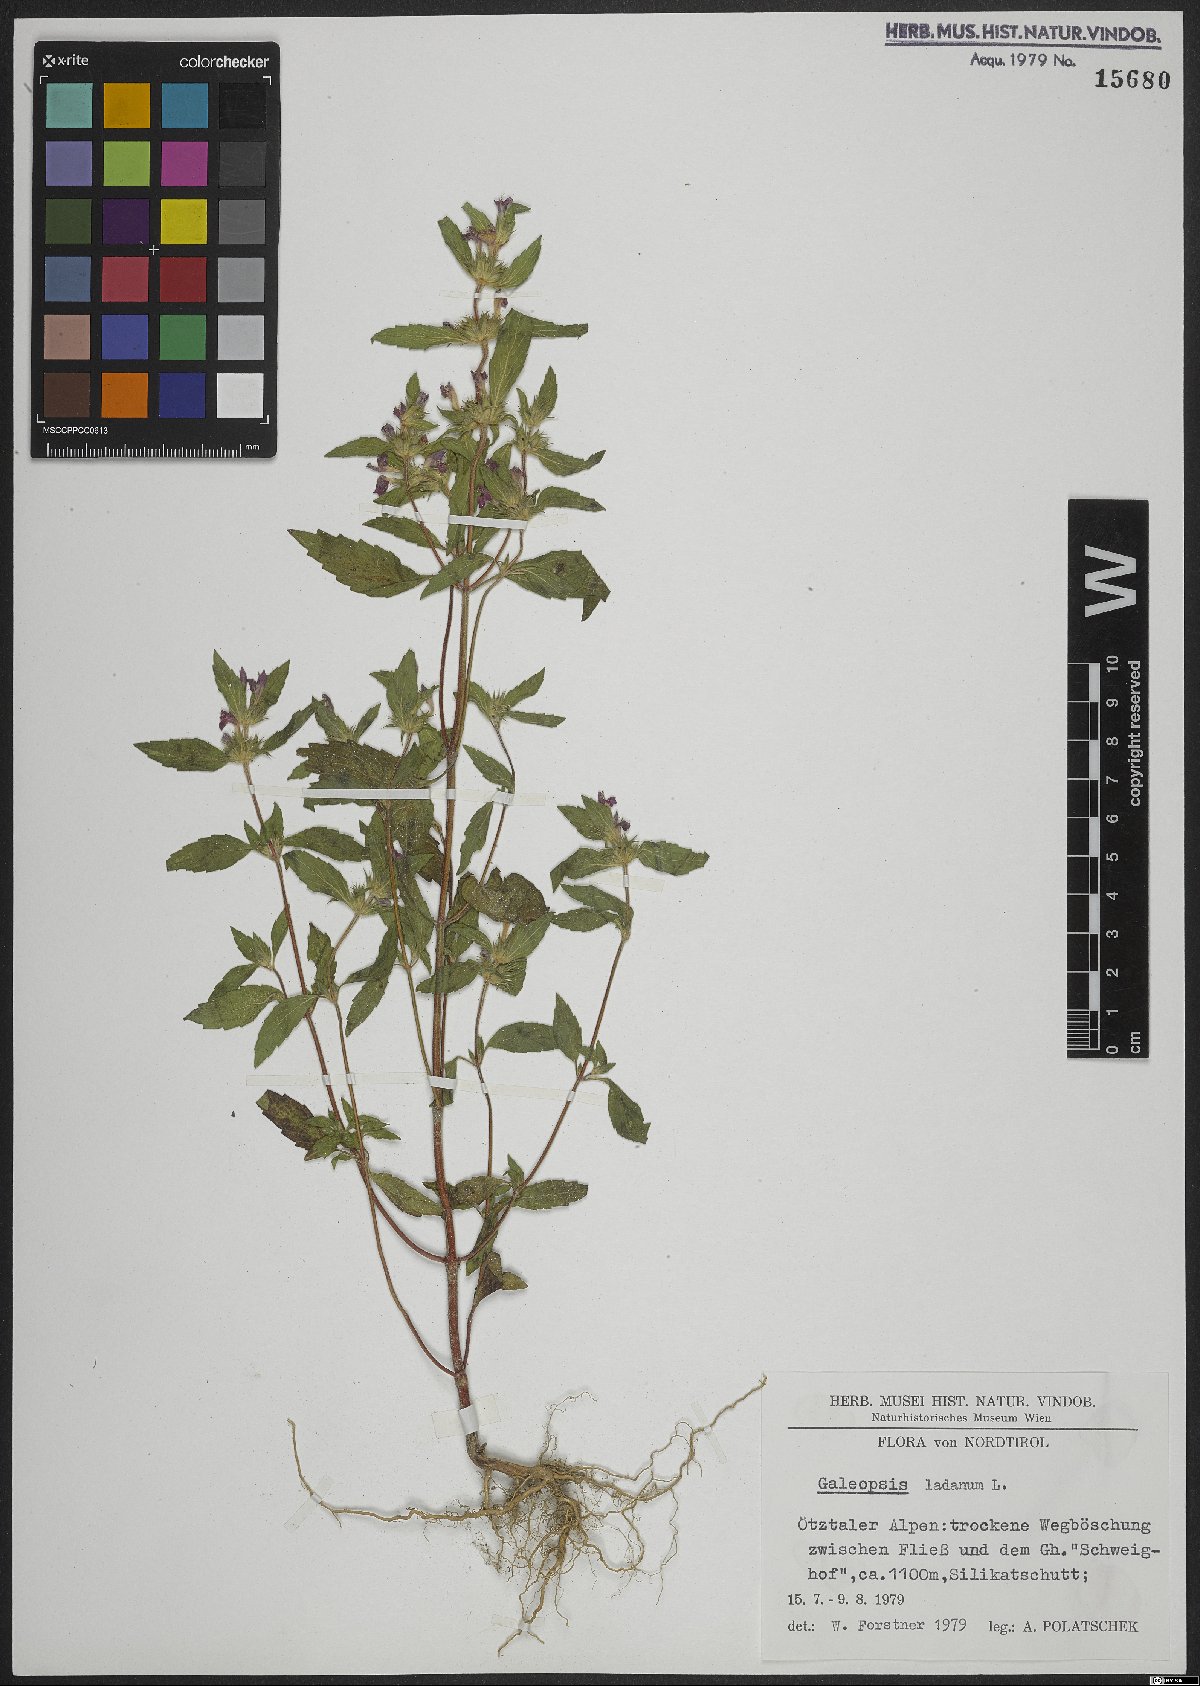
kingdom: Plantae
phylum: Tracheophyta
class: Magnoliopsida
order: Lamiales
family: Lamiaceae
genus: Galeopsis
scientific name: Galeopsis ladanum
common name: Broad-leaved hemp-nettle
